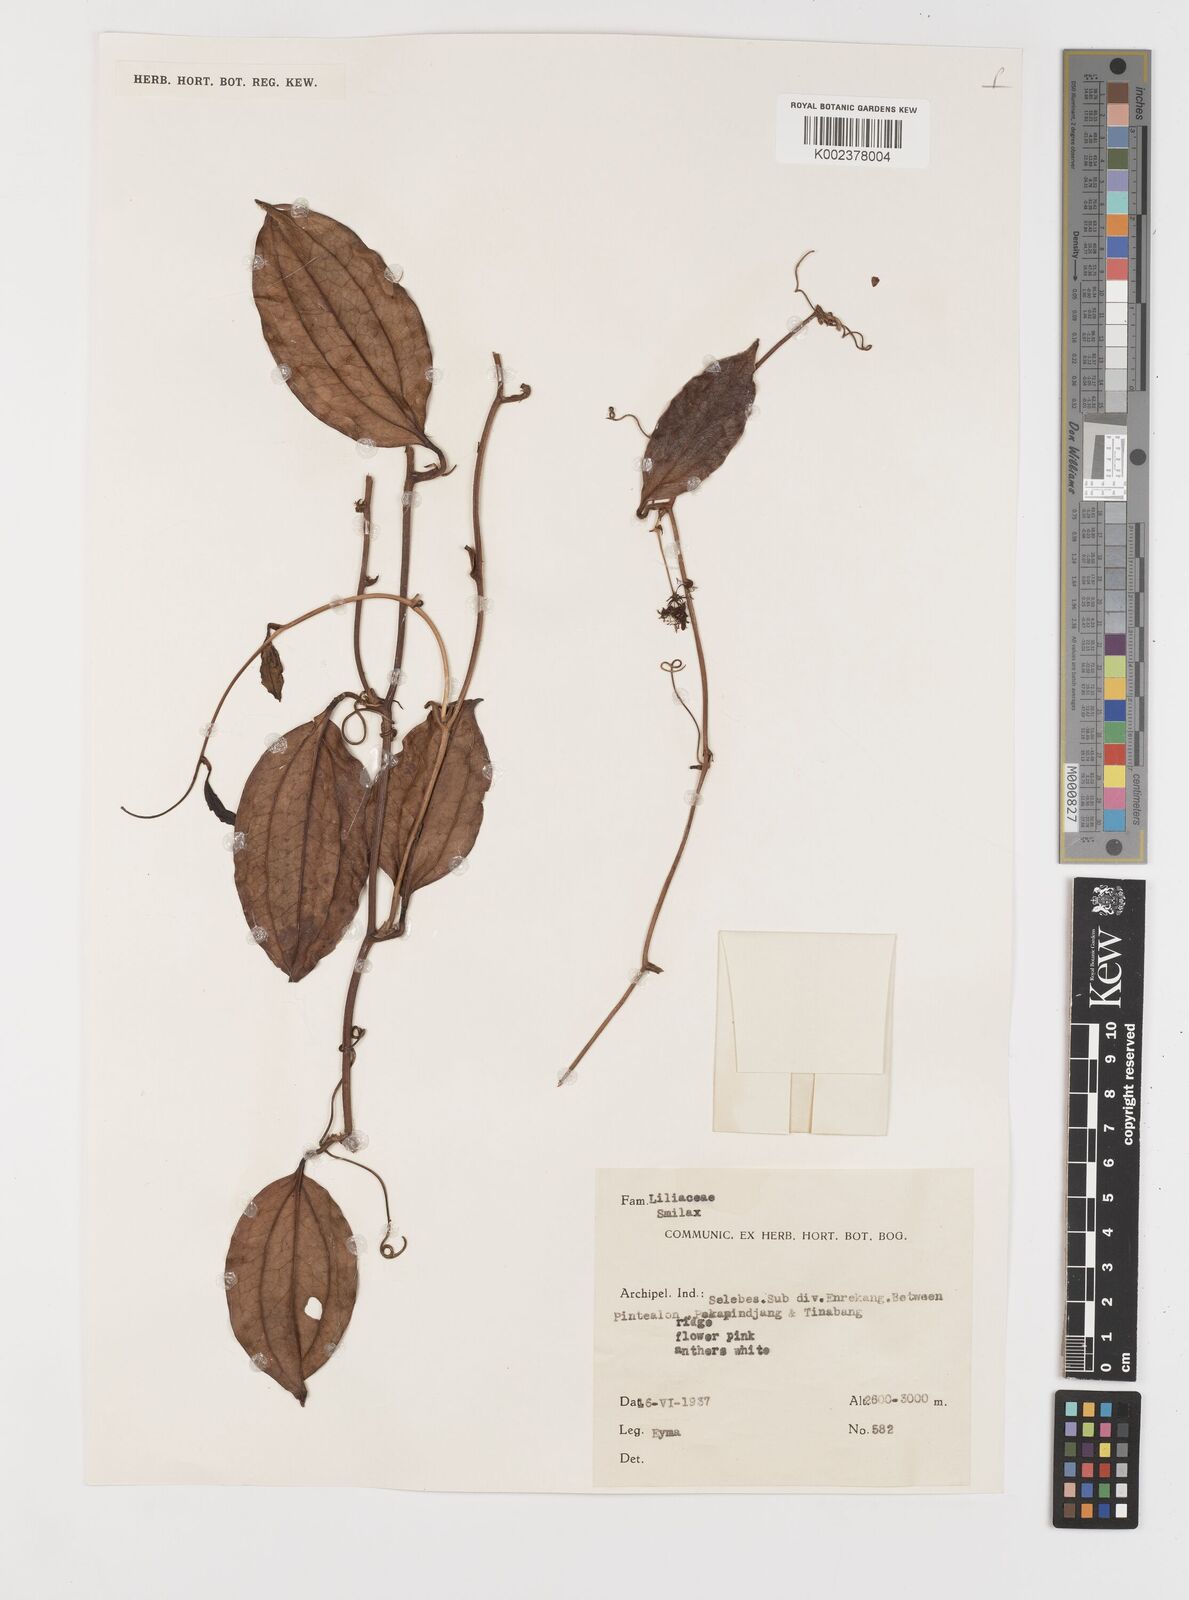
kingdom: Plantae
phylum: Tracheophyta
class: Liliopsida
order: Liliales
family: Smilacaceae
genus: Smilax
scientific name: Smilax
